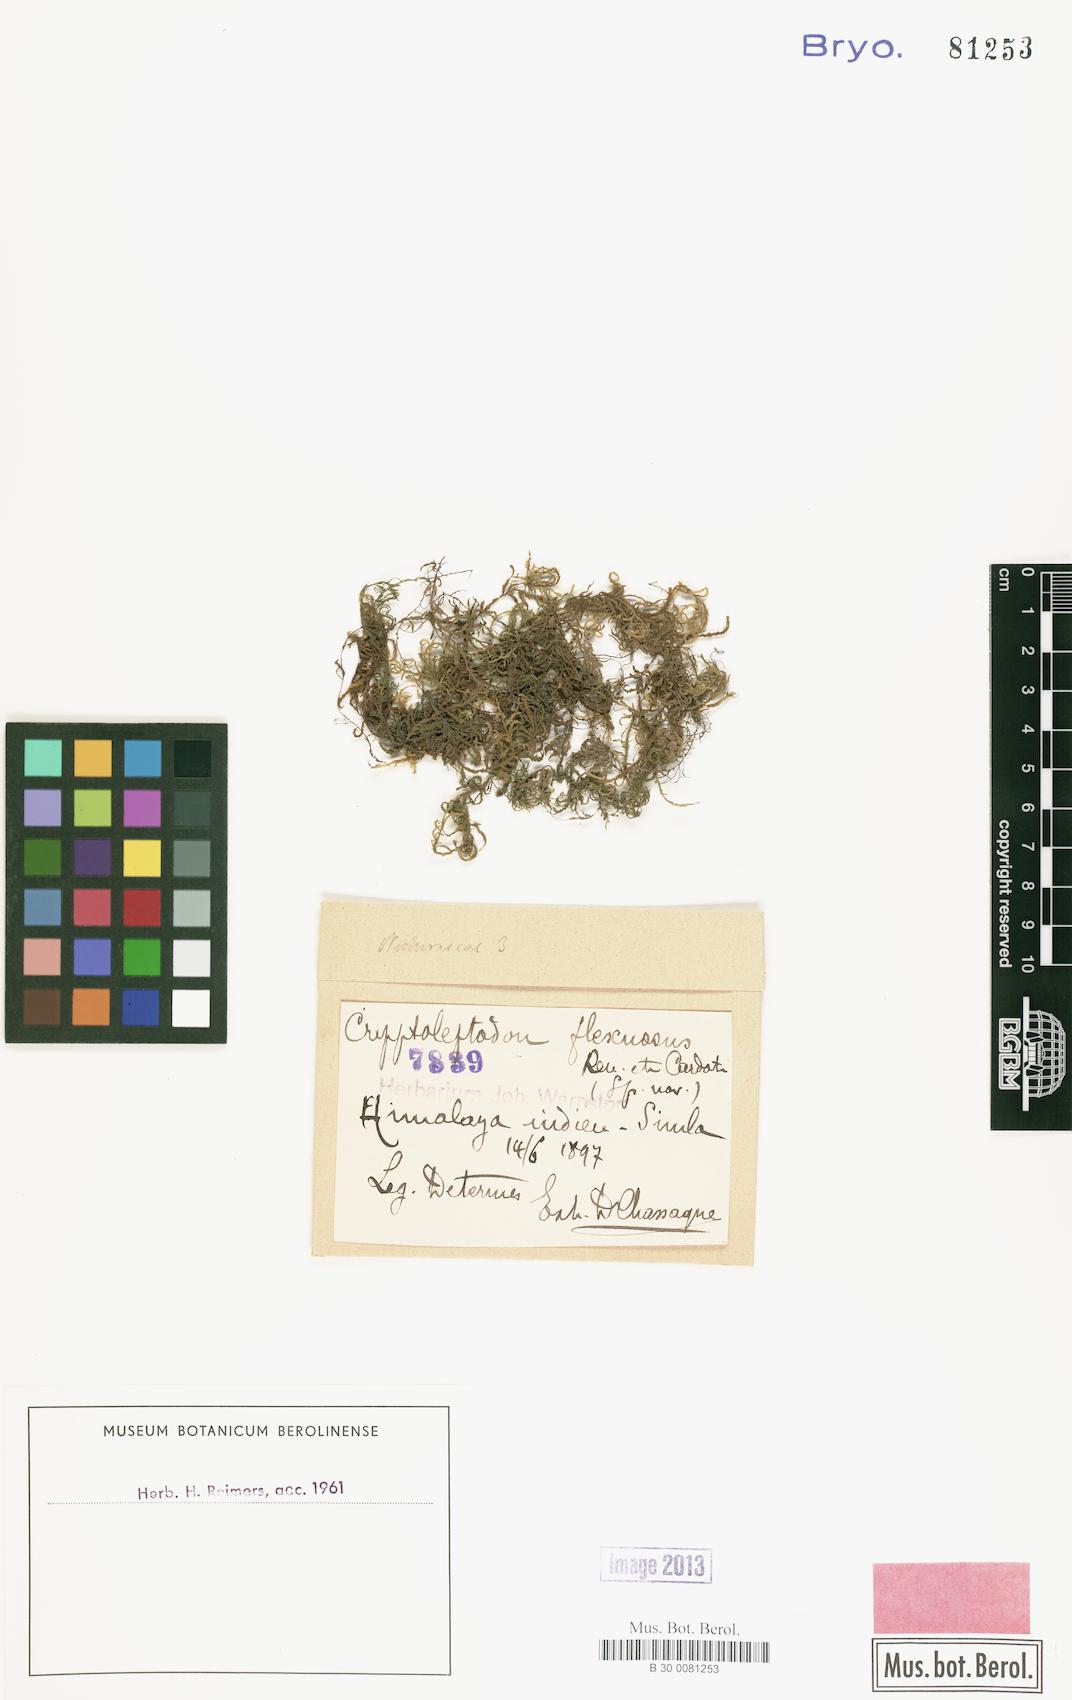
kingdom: Plantae
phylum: Bryophyta
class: Bryopsida
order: Hypnales
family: Neckeraceae
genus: Leptodon
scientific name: Leptodon pluvinii
